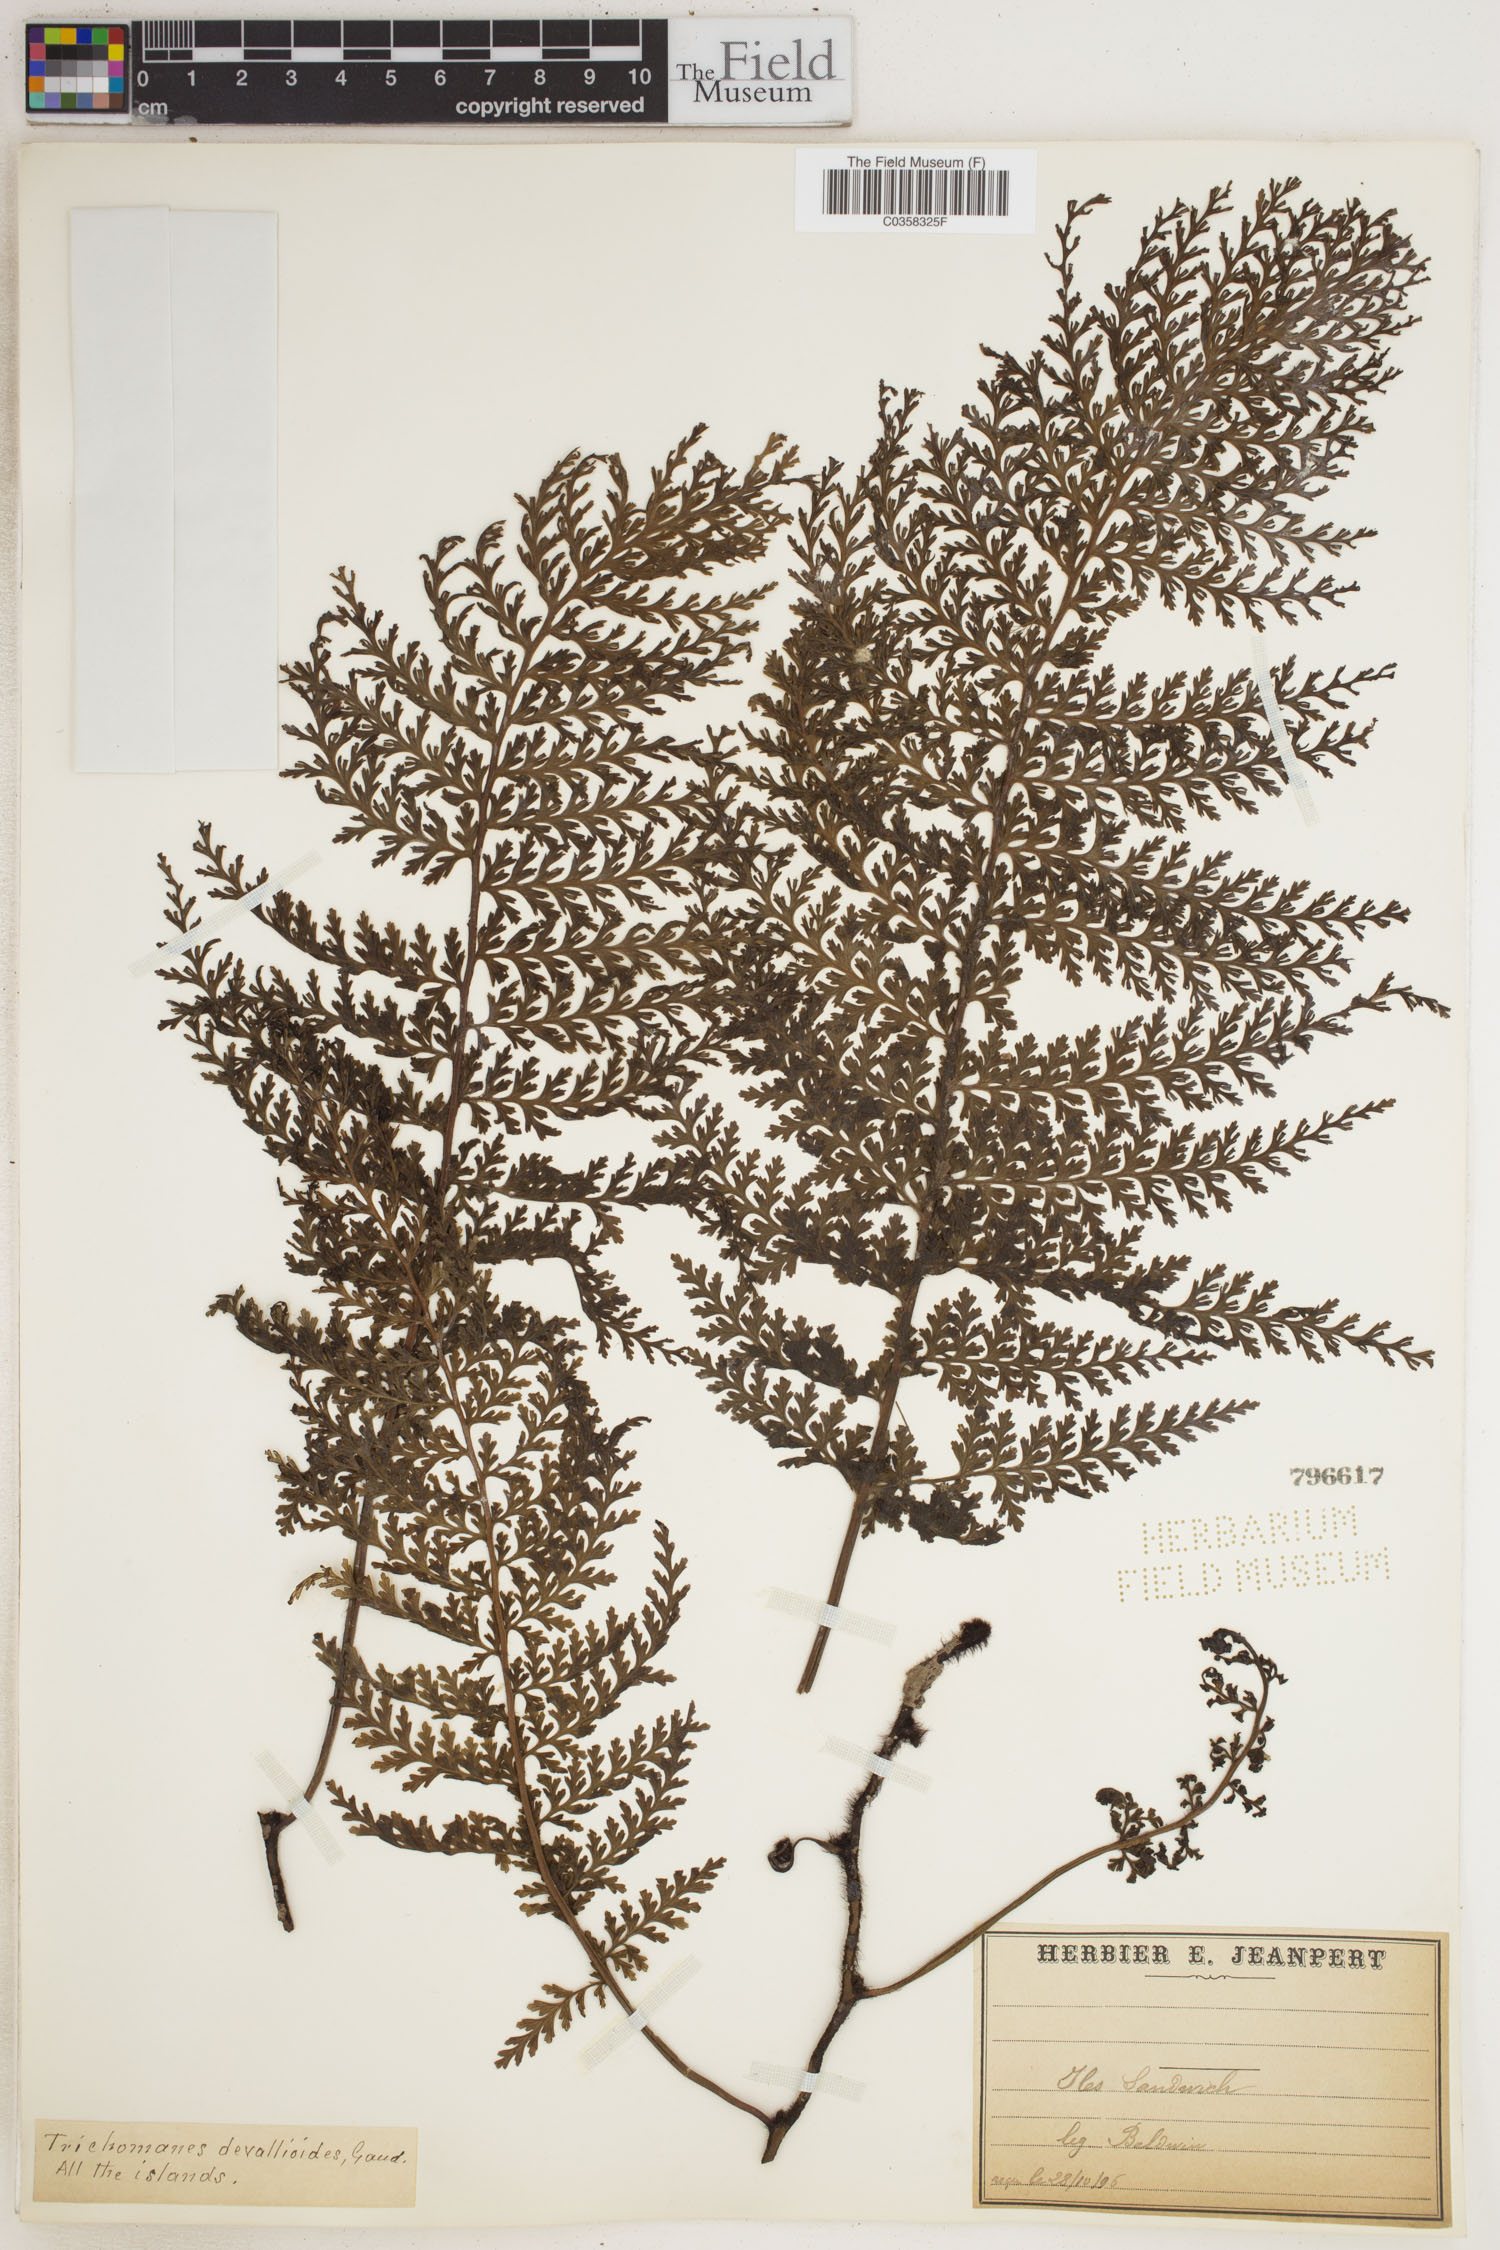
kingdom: Plantae
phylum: Tracheophyta
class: Polypodiopsida
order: Hymenophyllales
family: Hymenophyllaceae
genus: Vandenboschia
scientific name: Vandenboschia davallioides
